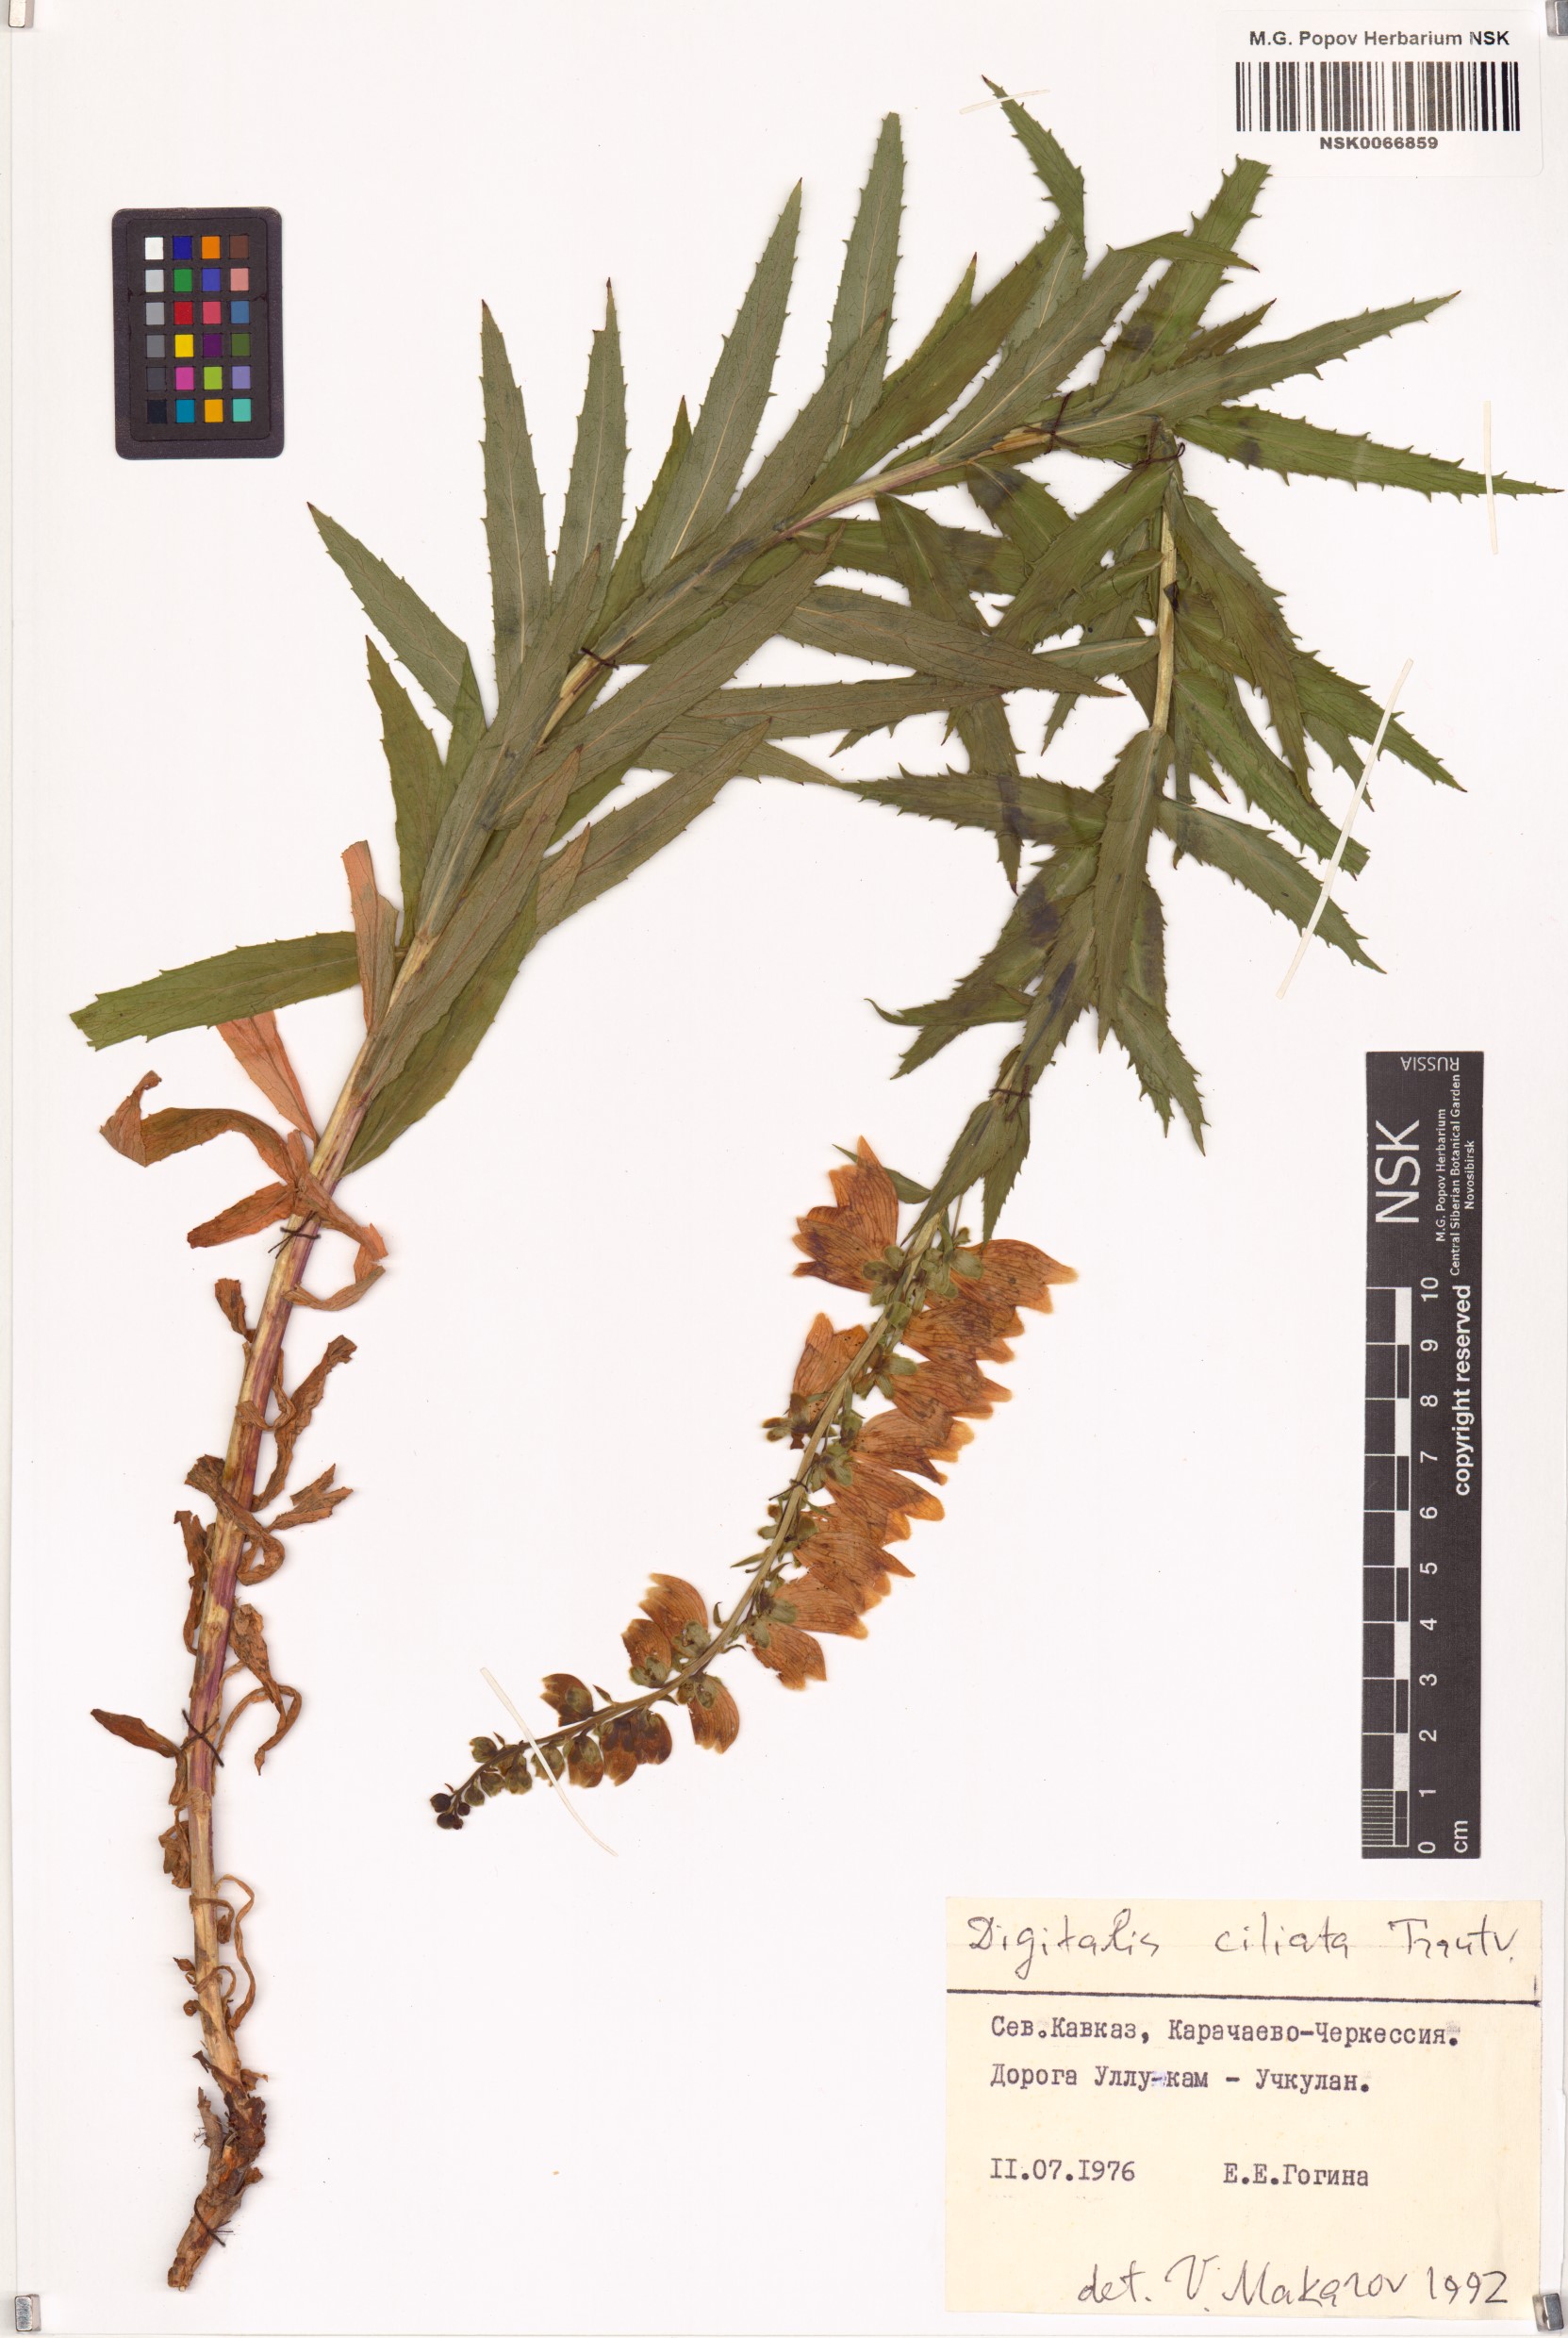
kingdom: Plantae
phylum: Tracheophyta
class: Magnoliopsida
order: Lamiales
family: Plantaginaceae
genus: Digitalis
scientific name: Digitalis ciliata
